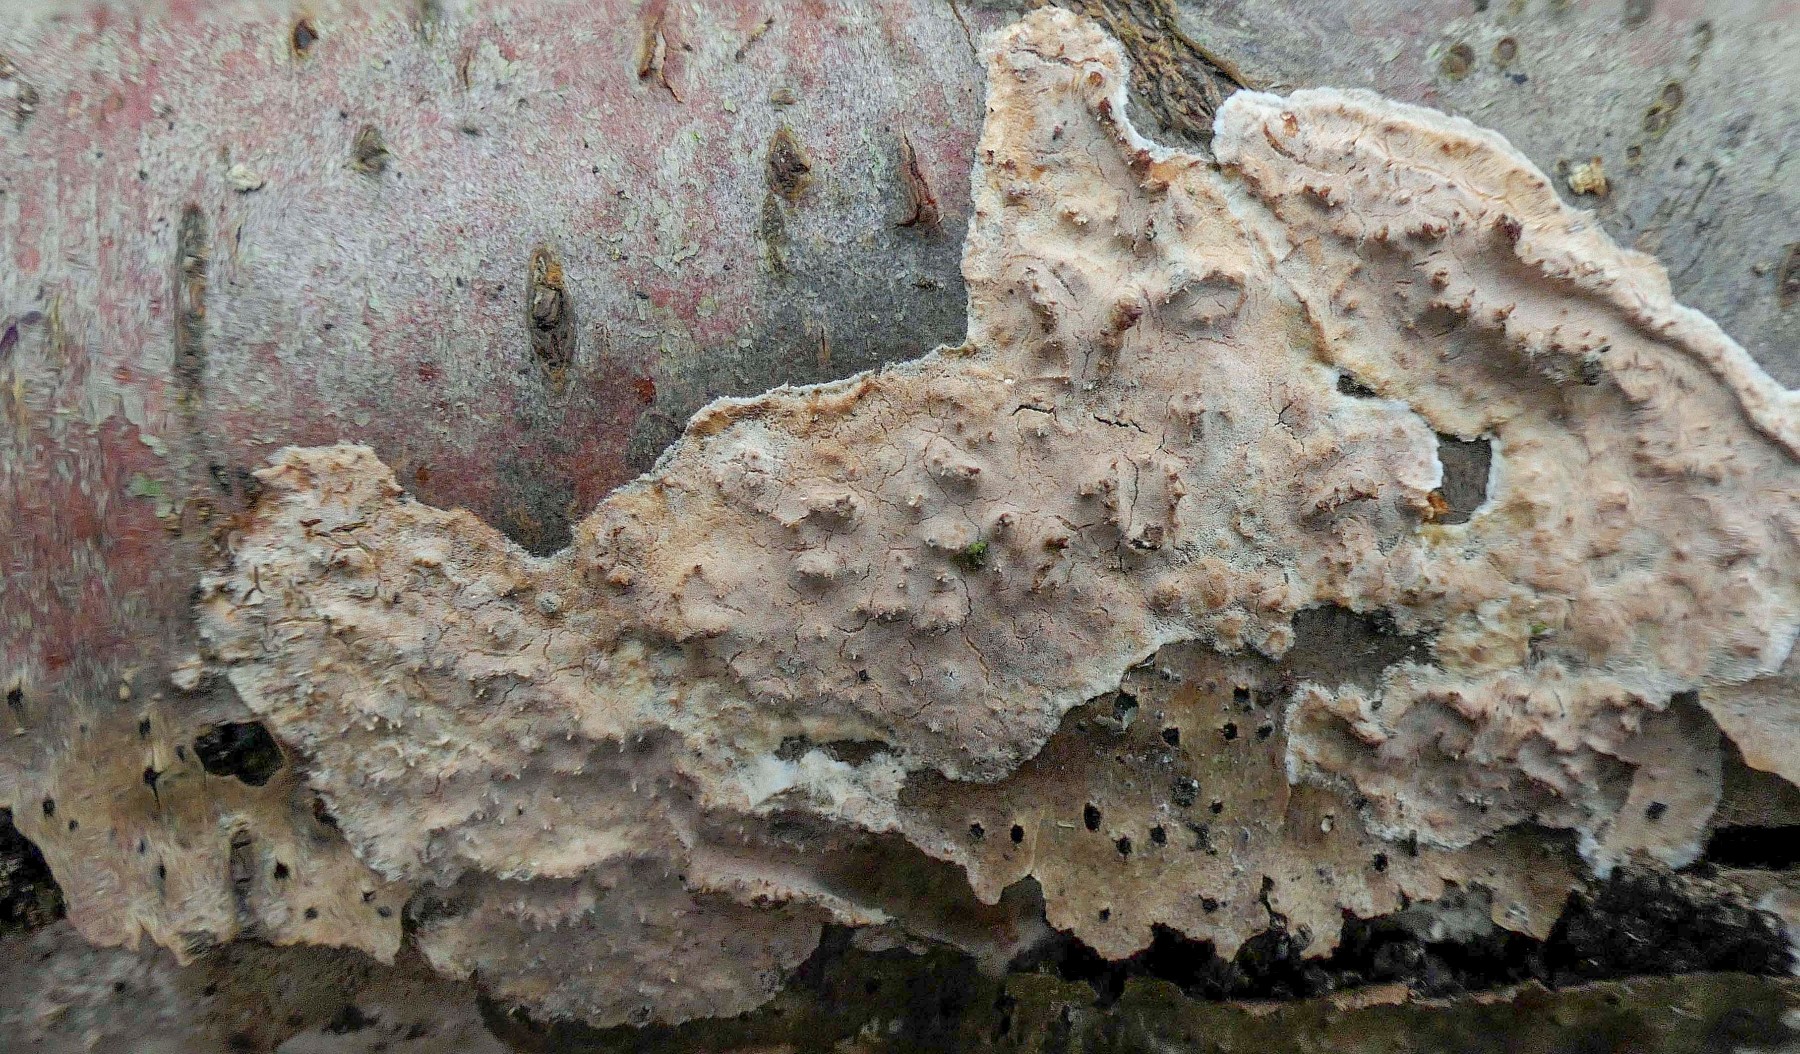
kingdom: Fungi
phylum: Basidiomycota
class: Agaricomycetes
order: Auriculariales
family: Auriculariaceae
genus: Heteroradulum
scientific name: Heteroradulum deglubens
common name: bævreskorpe
